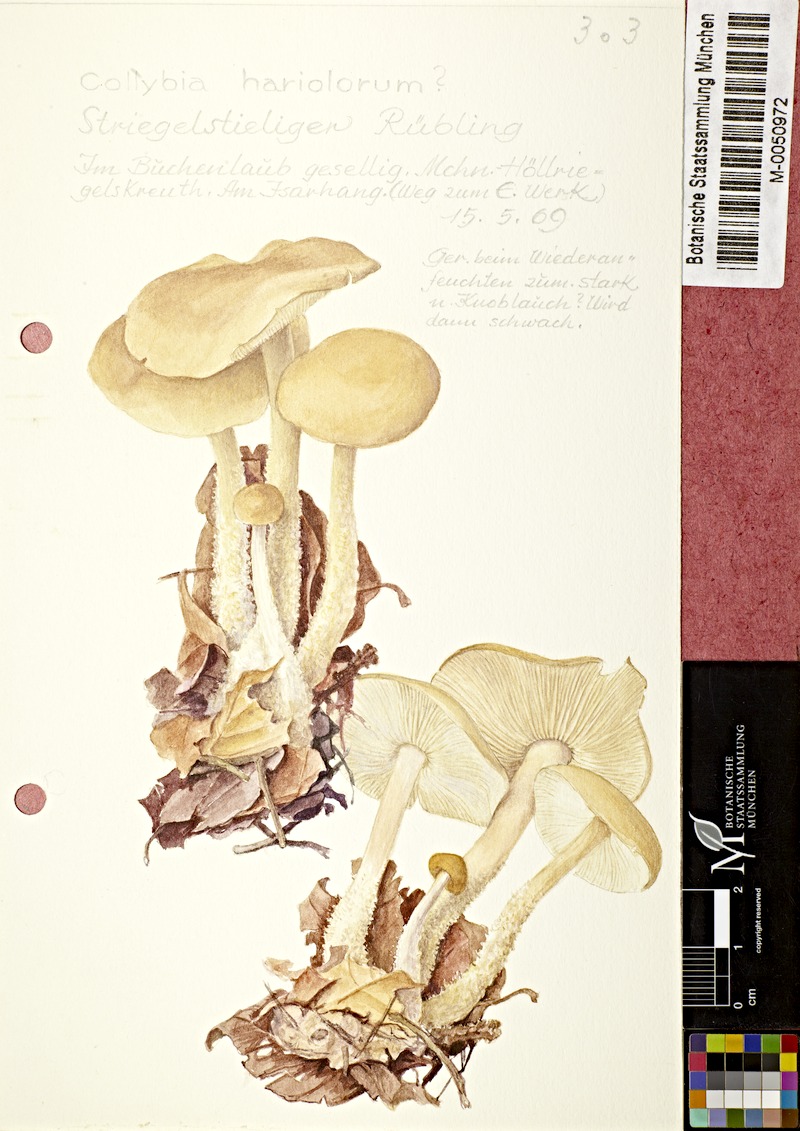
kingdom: Fungi
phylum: Basidiomycota
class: Agaricomycetes
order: Agaricales
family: Omphalotaceae
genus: Gymnopus
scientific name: Gymnopus hariolorum
